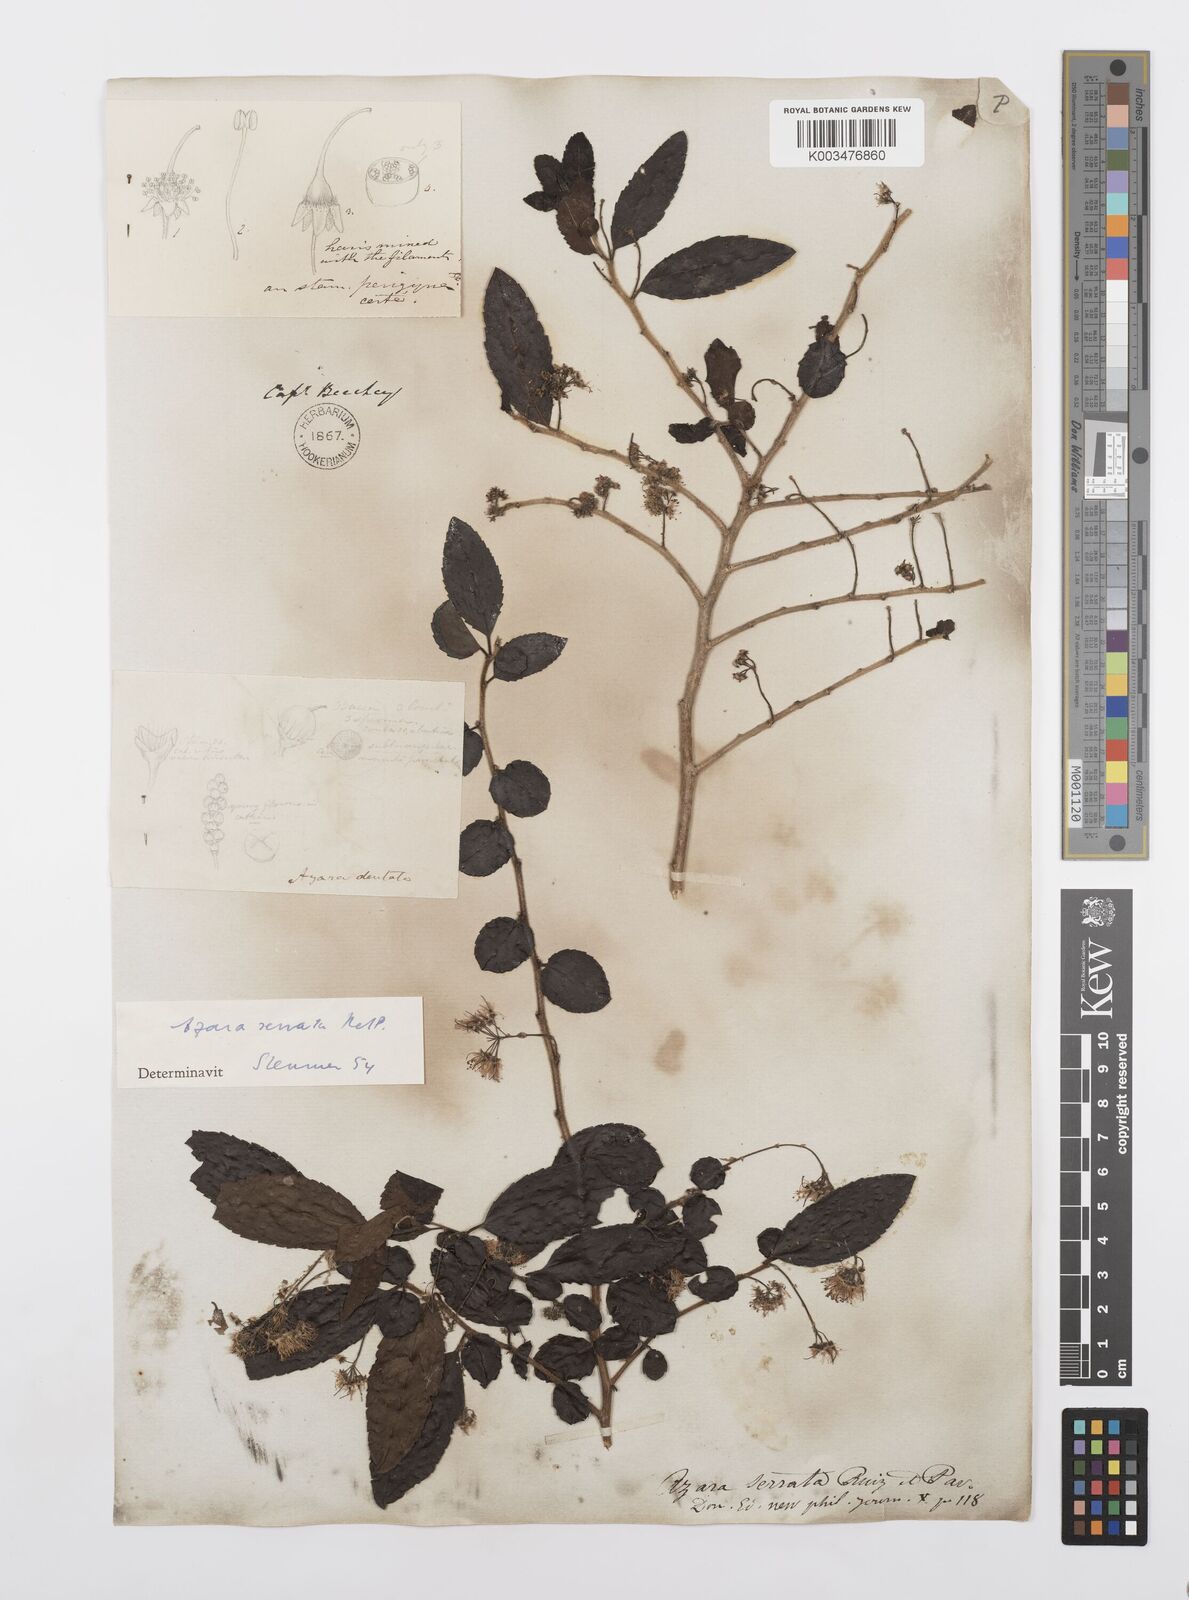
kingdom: Plantae
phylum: Tracheophyta
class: Magnoliopsida
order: Malpighiales
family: Salicaceae
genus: Azara
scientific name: Azara serrata
